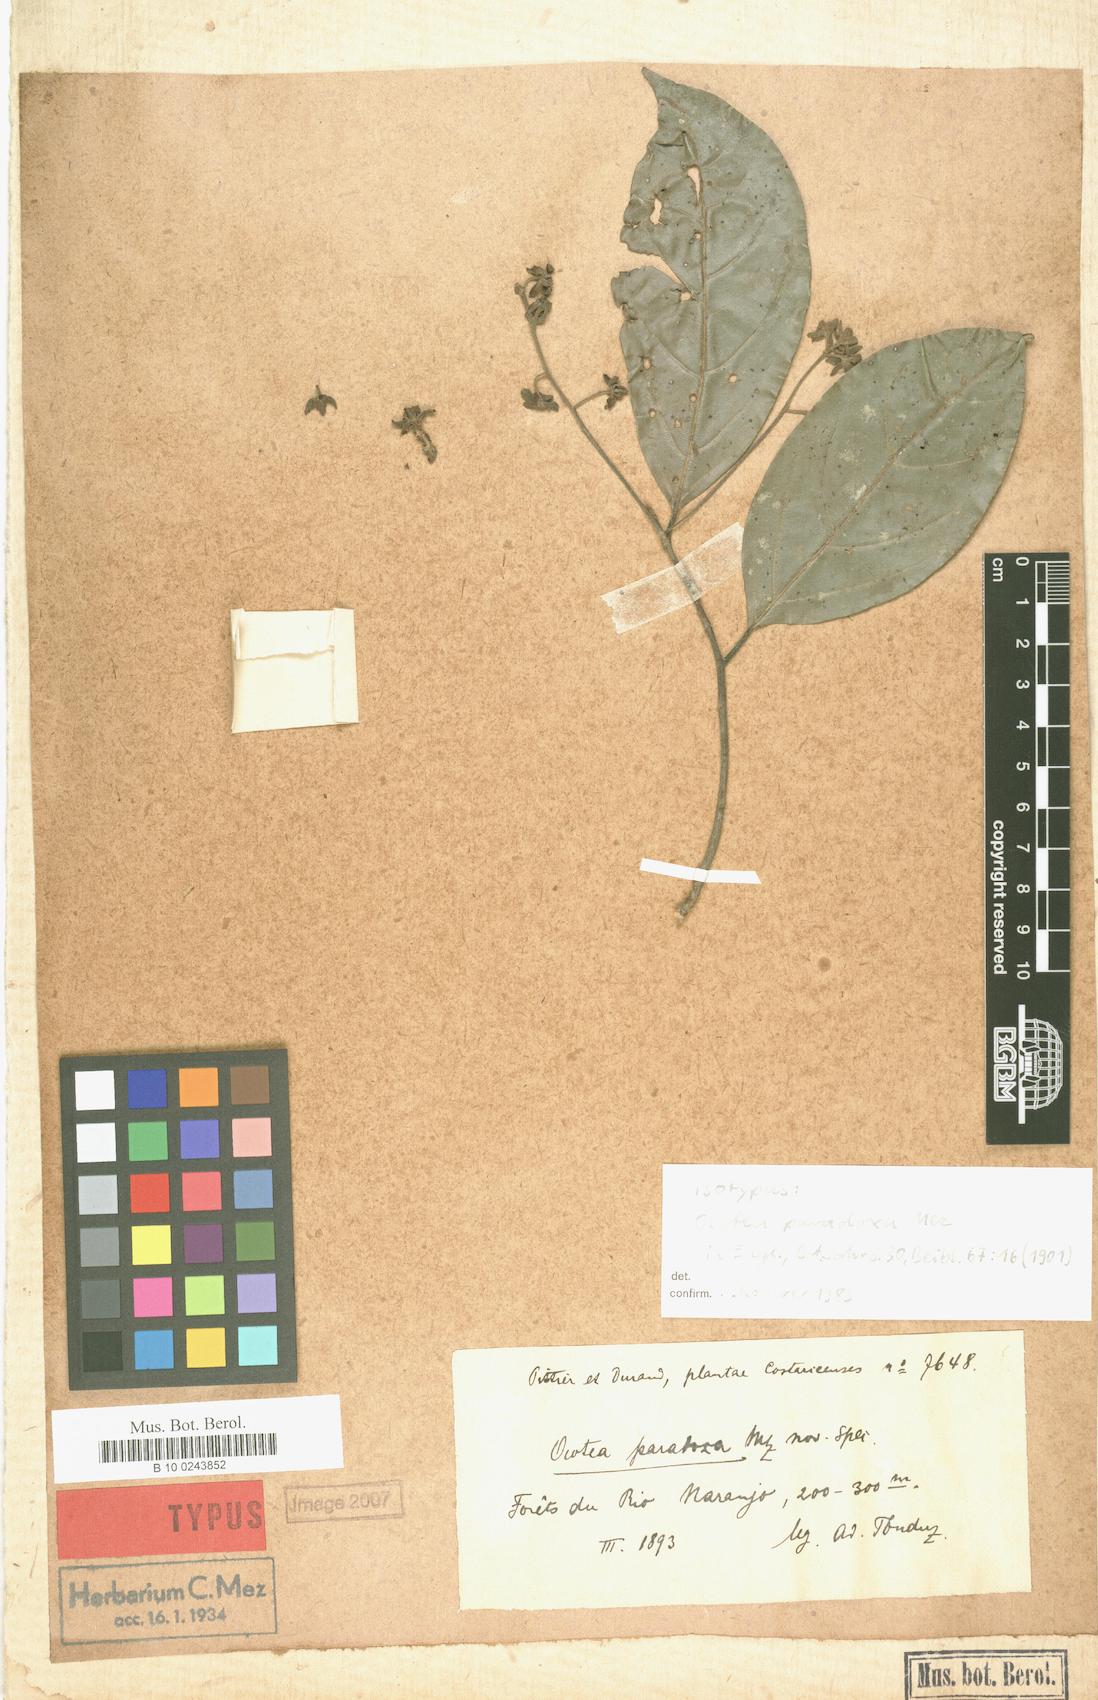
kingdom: Plantae
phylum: Tracheophyta
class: Magnoliopsida
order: Laurales
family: Lauraceae
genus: Mespilodaphne
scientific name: Mespilodaphne paradoxa
